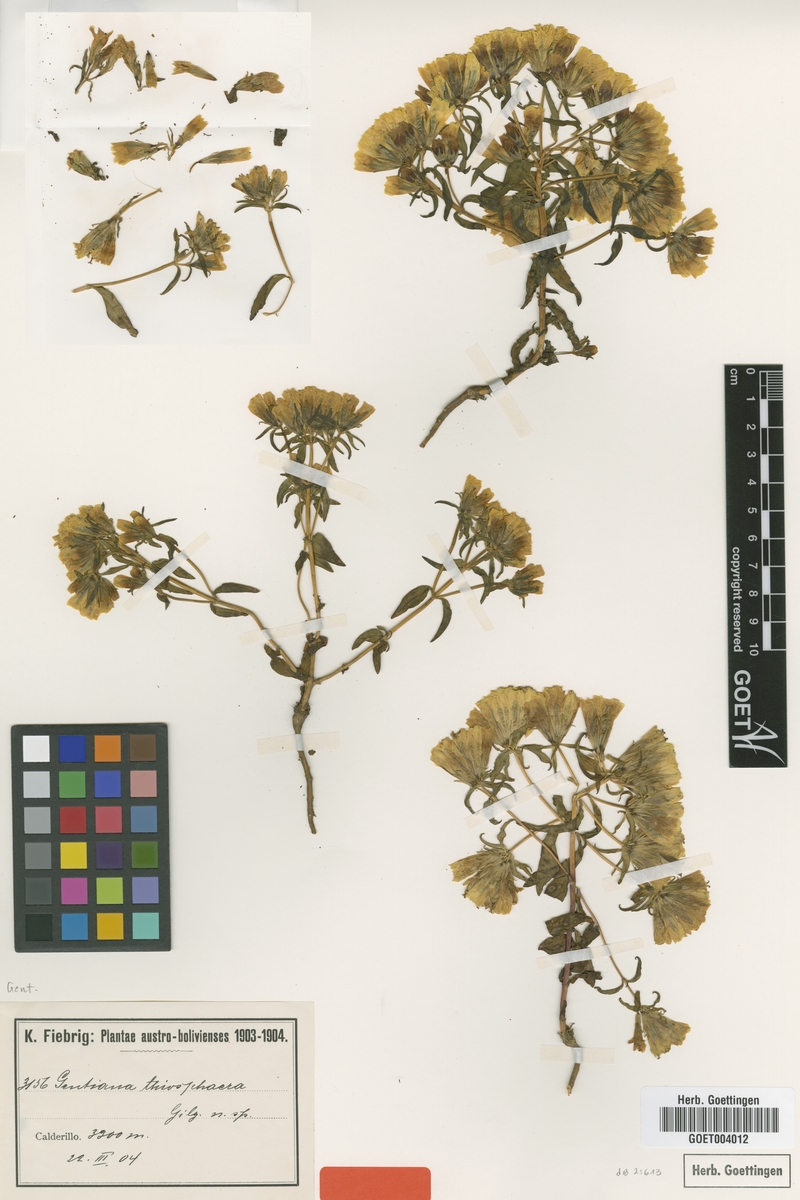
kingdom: Plantae
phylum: Tracheophyta
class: Magnoliopsida
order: Gentianales
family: Gentianaceae
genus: Gentianella
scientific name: Gentianella thiosphaera
